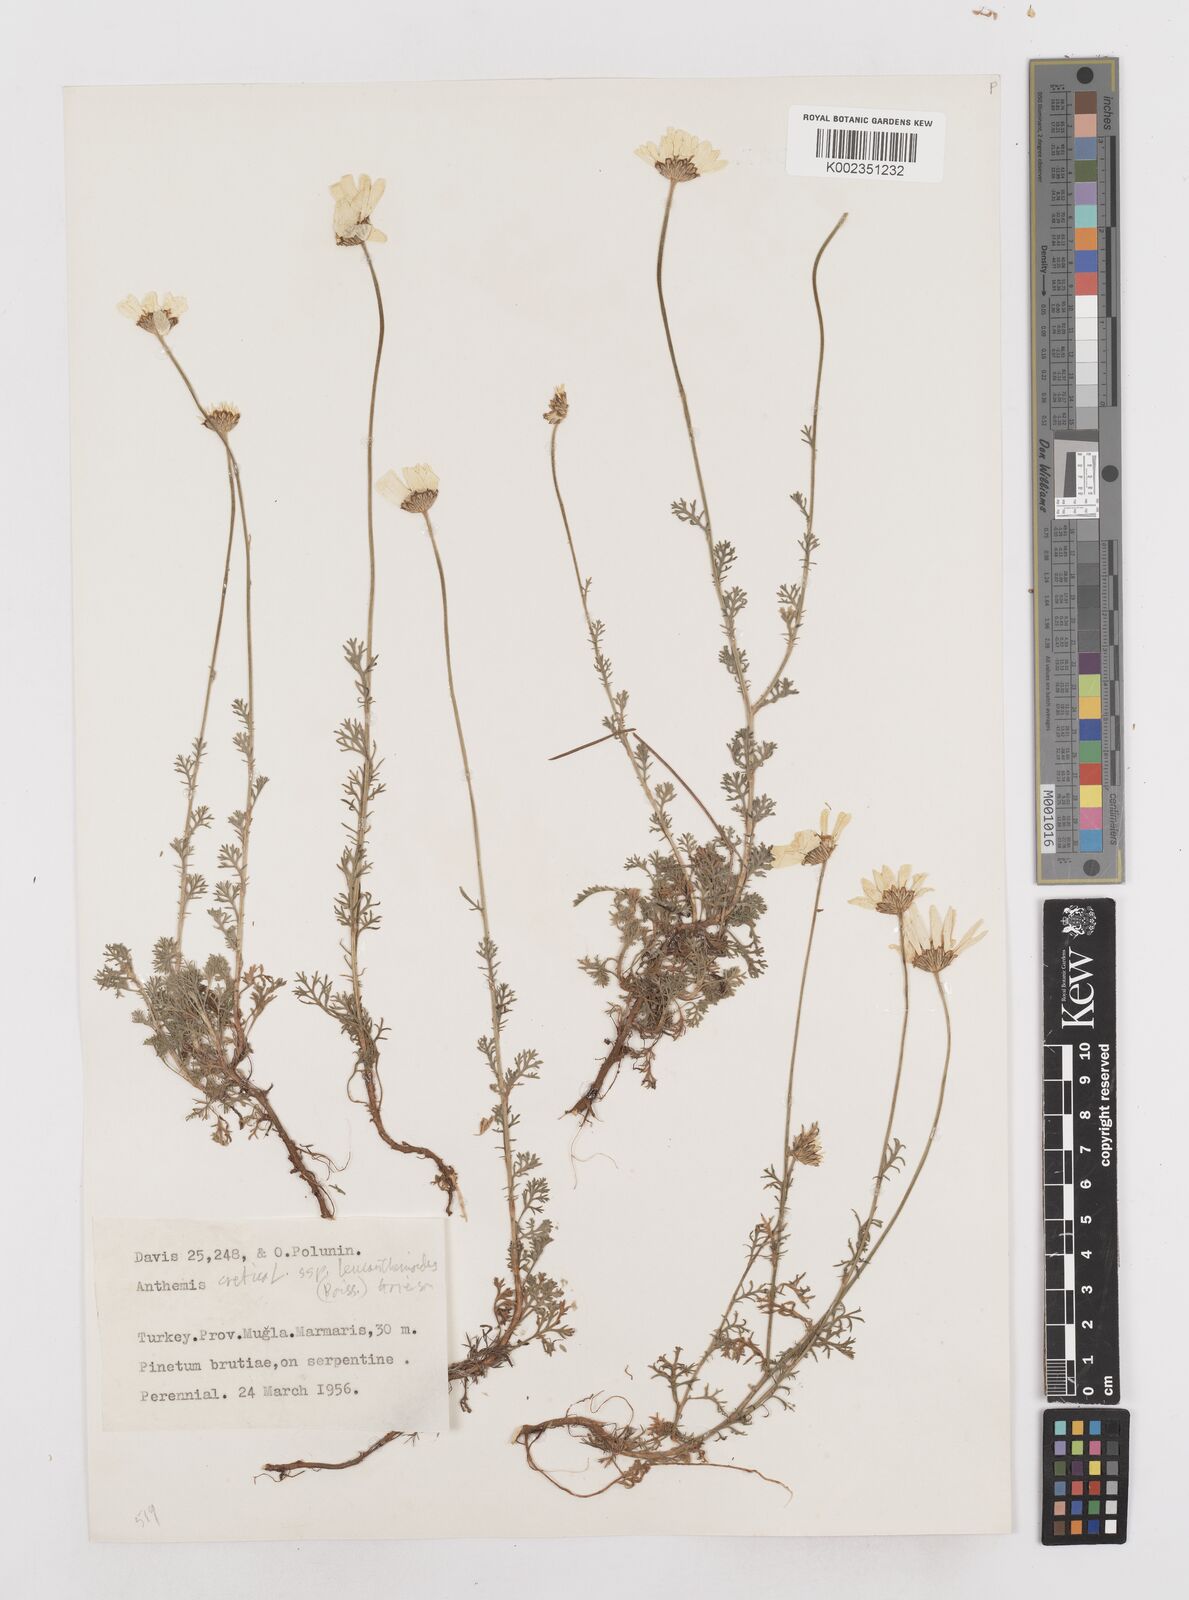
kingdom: Plantae
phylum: Tracheophyta
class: Magnoliopsida
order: Asterales
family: Asteraceae
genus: Anthemis
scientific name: Anthemis cretica
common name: Mountain dog-daisy
